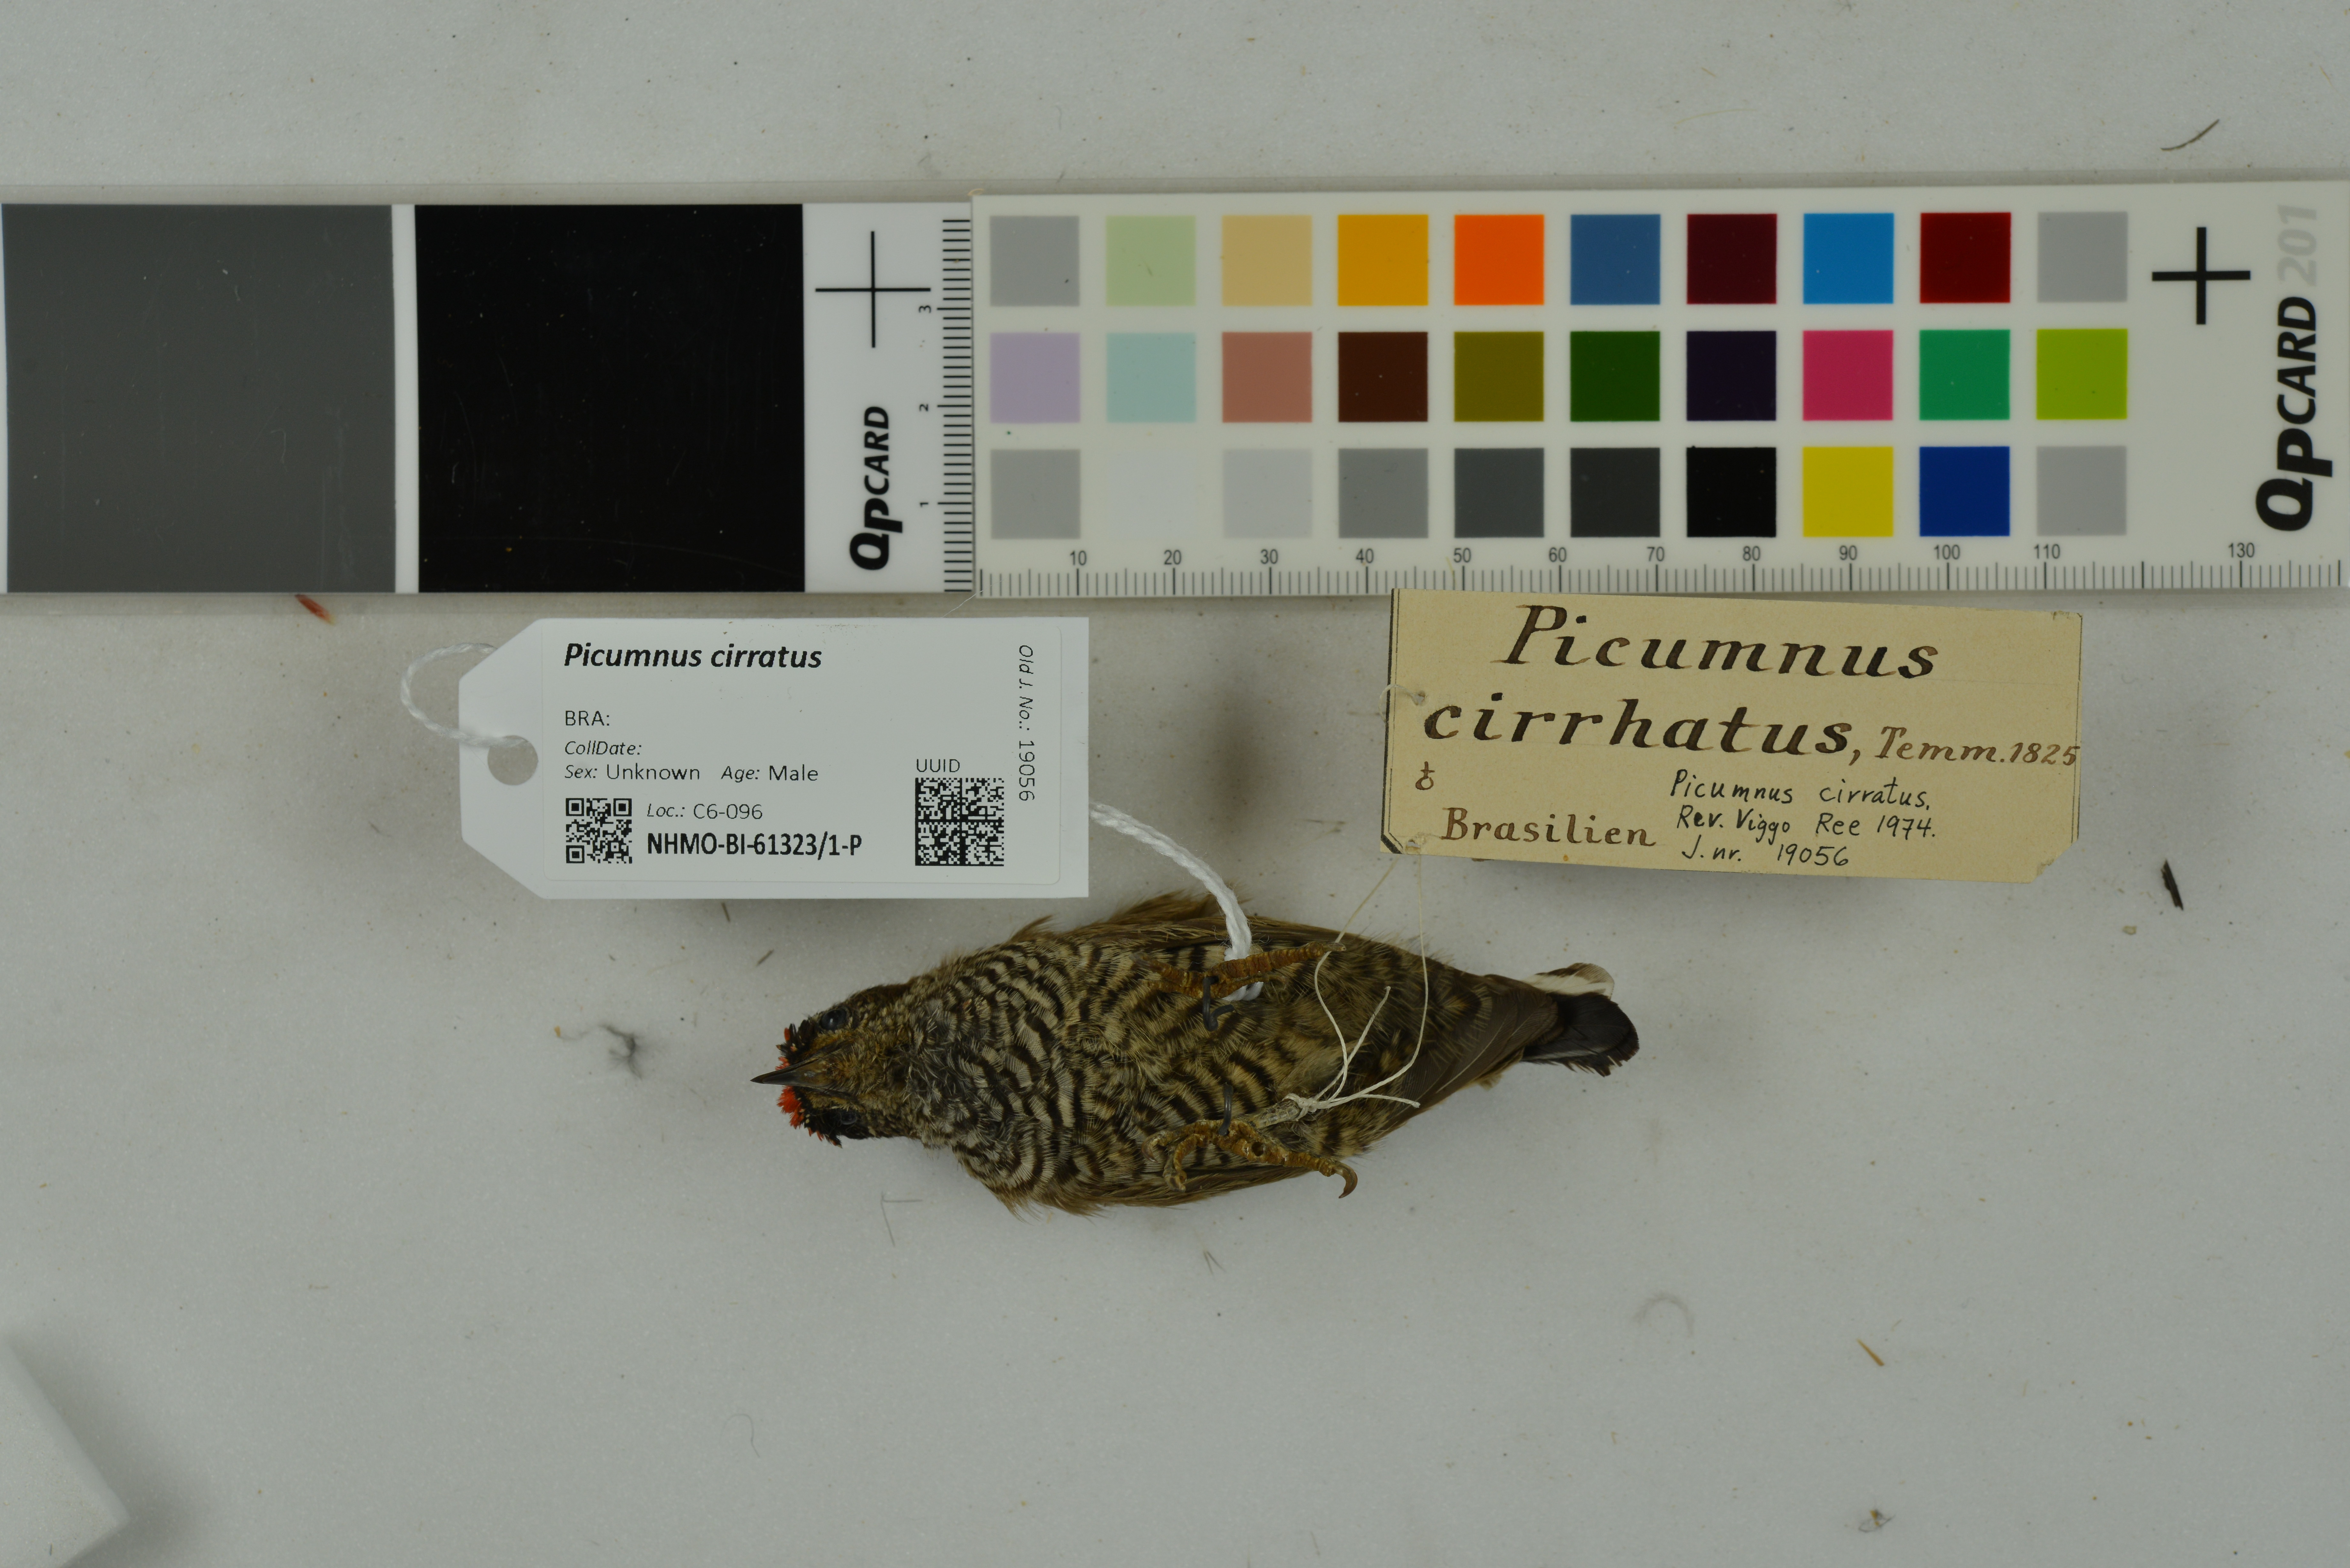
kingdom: Animalia
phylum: Chordata
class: Aves
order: Piciformes
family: Picidae
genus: Picumnus
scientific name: Picumnus cirratus
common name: White-barred piculet
